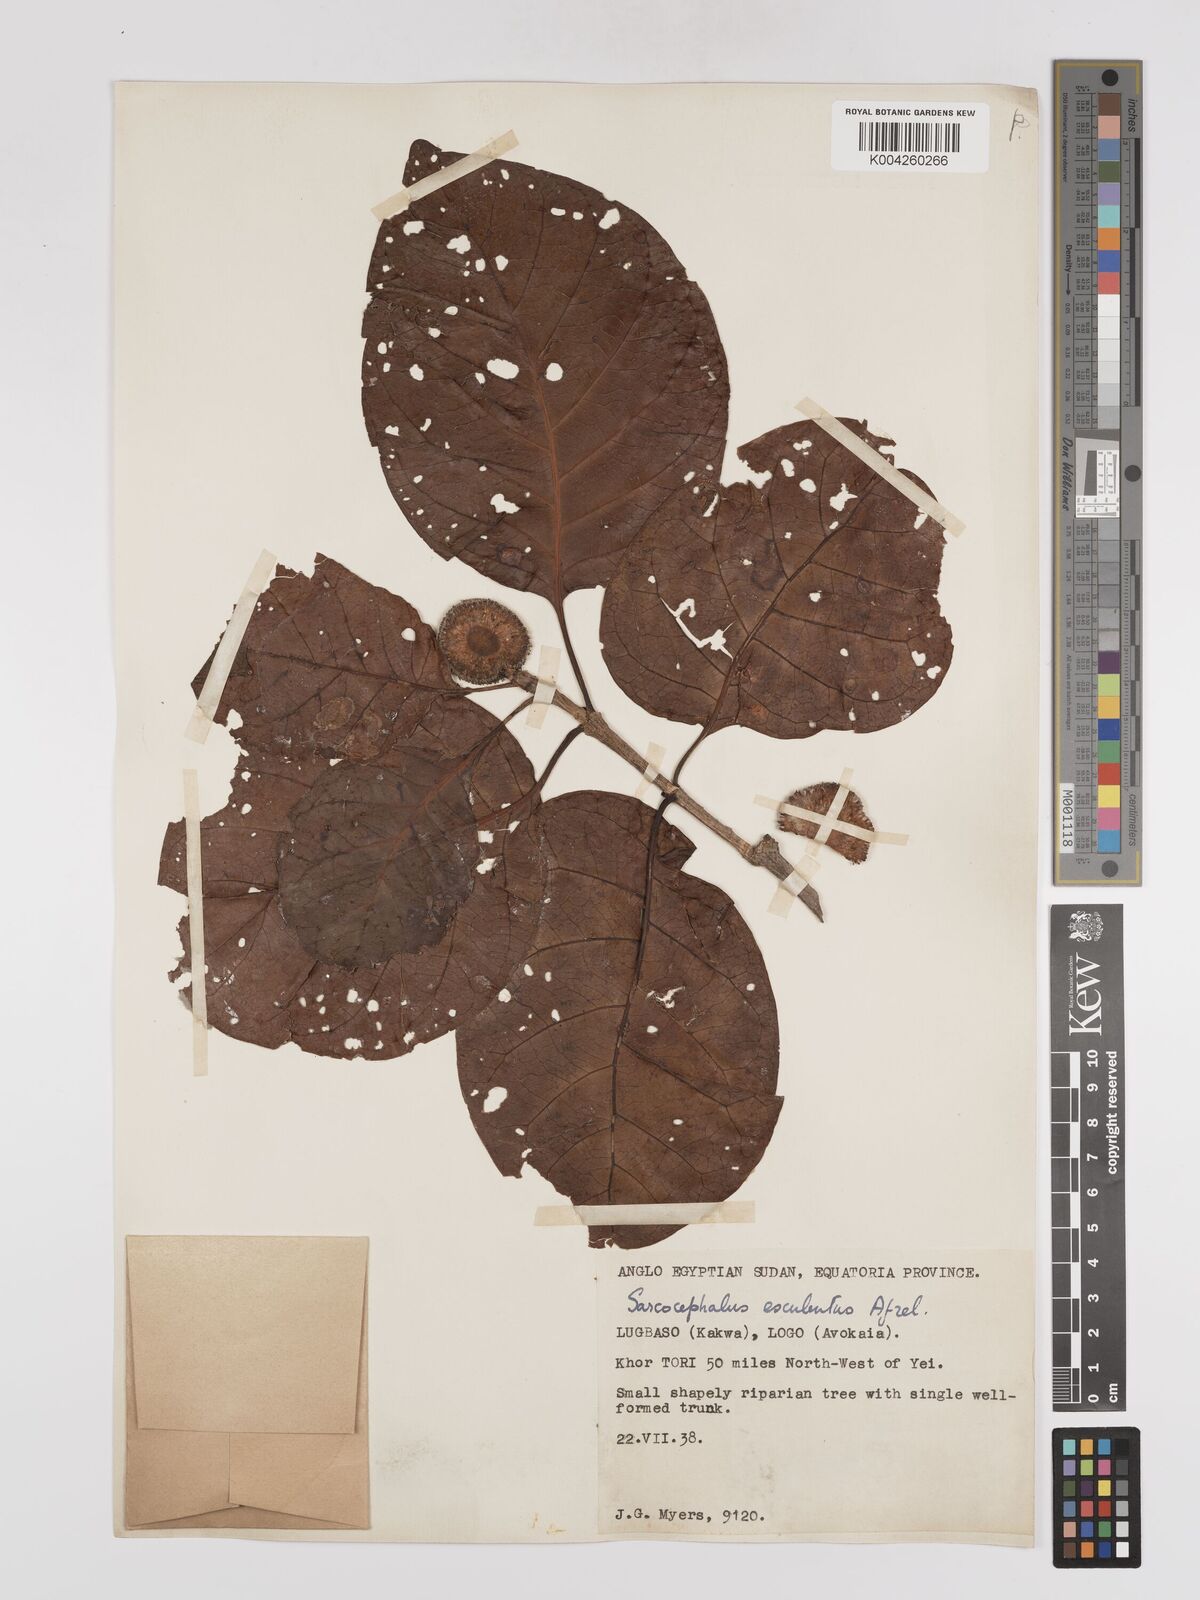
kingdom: Plantae
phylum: Tracheophyta
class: Magnoliopsida
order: Gentianales
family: Rubiaceae
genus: Nauclea
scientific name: Nauclea
